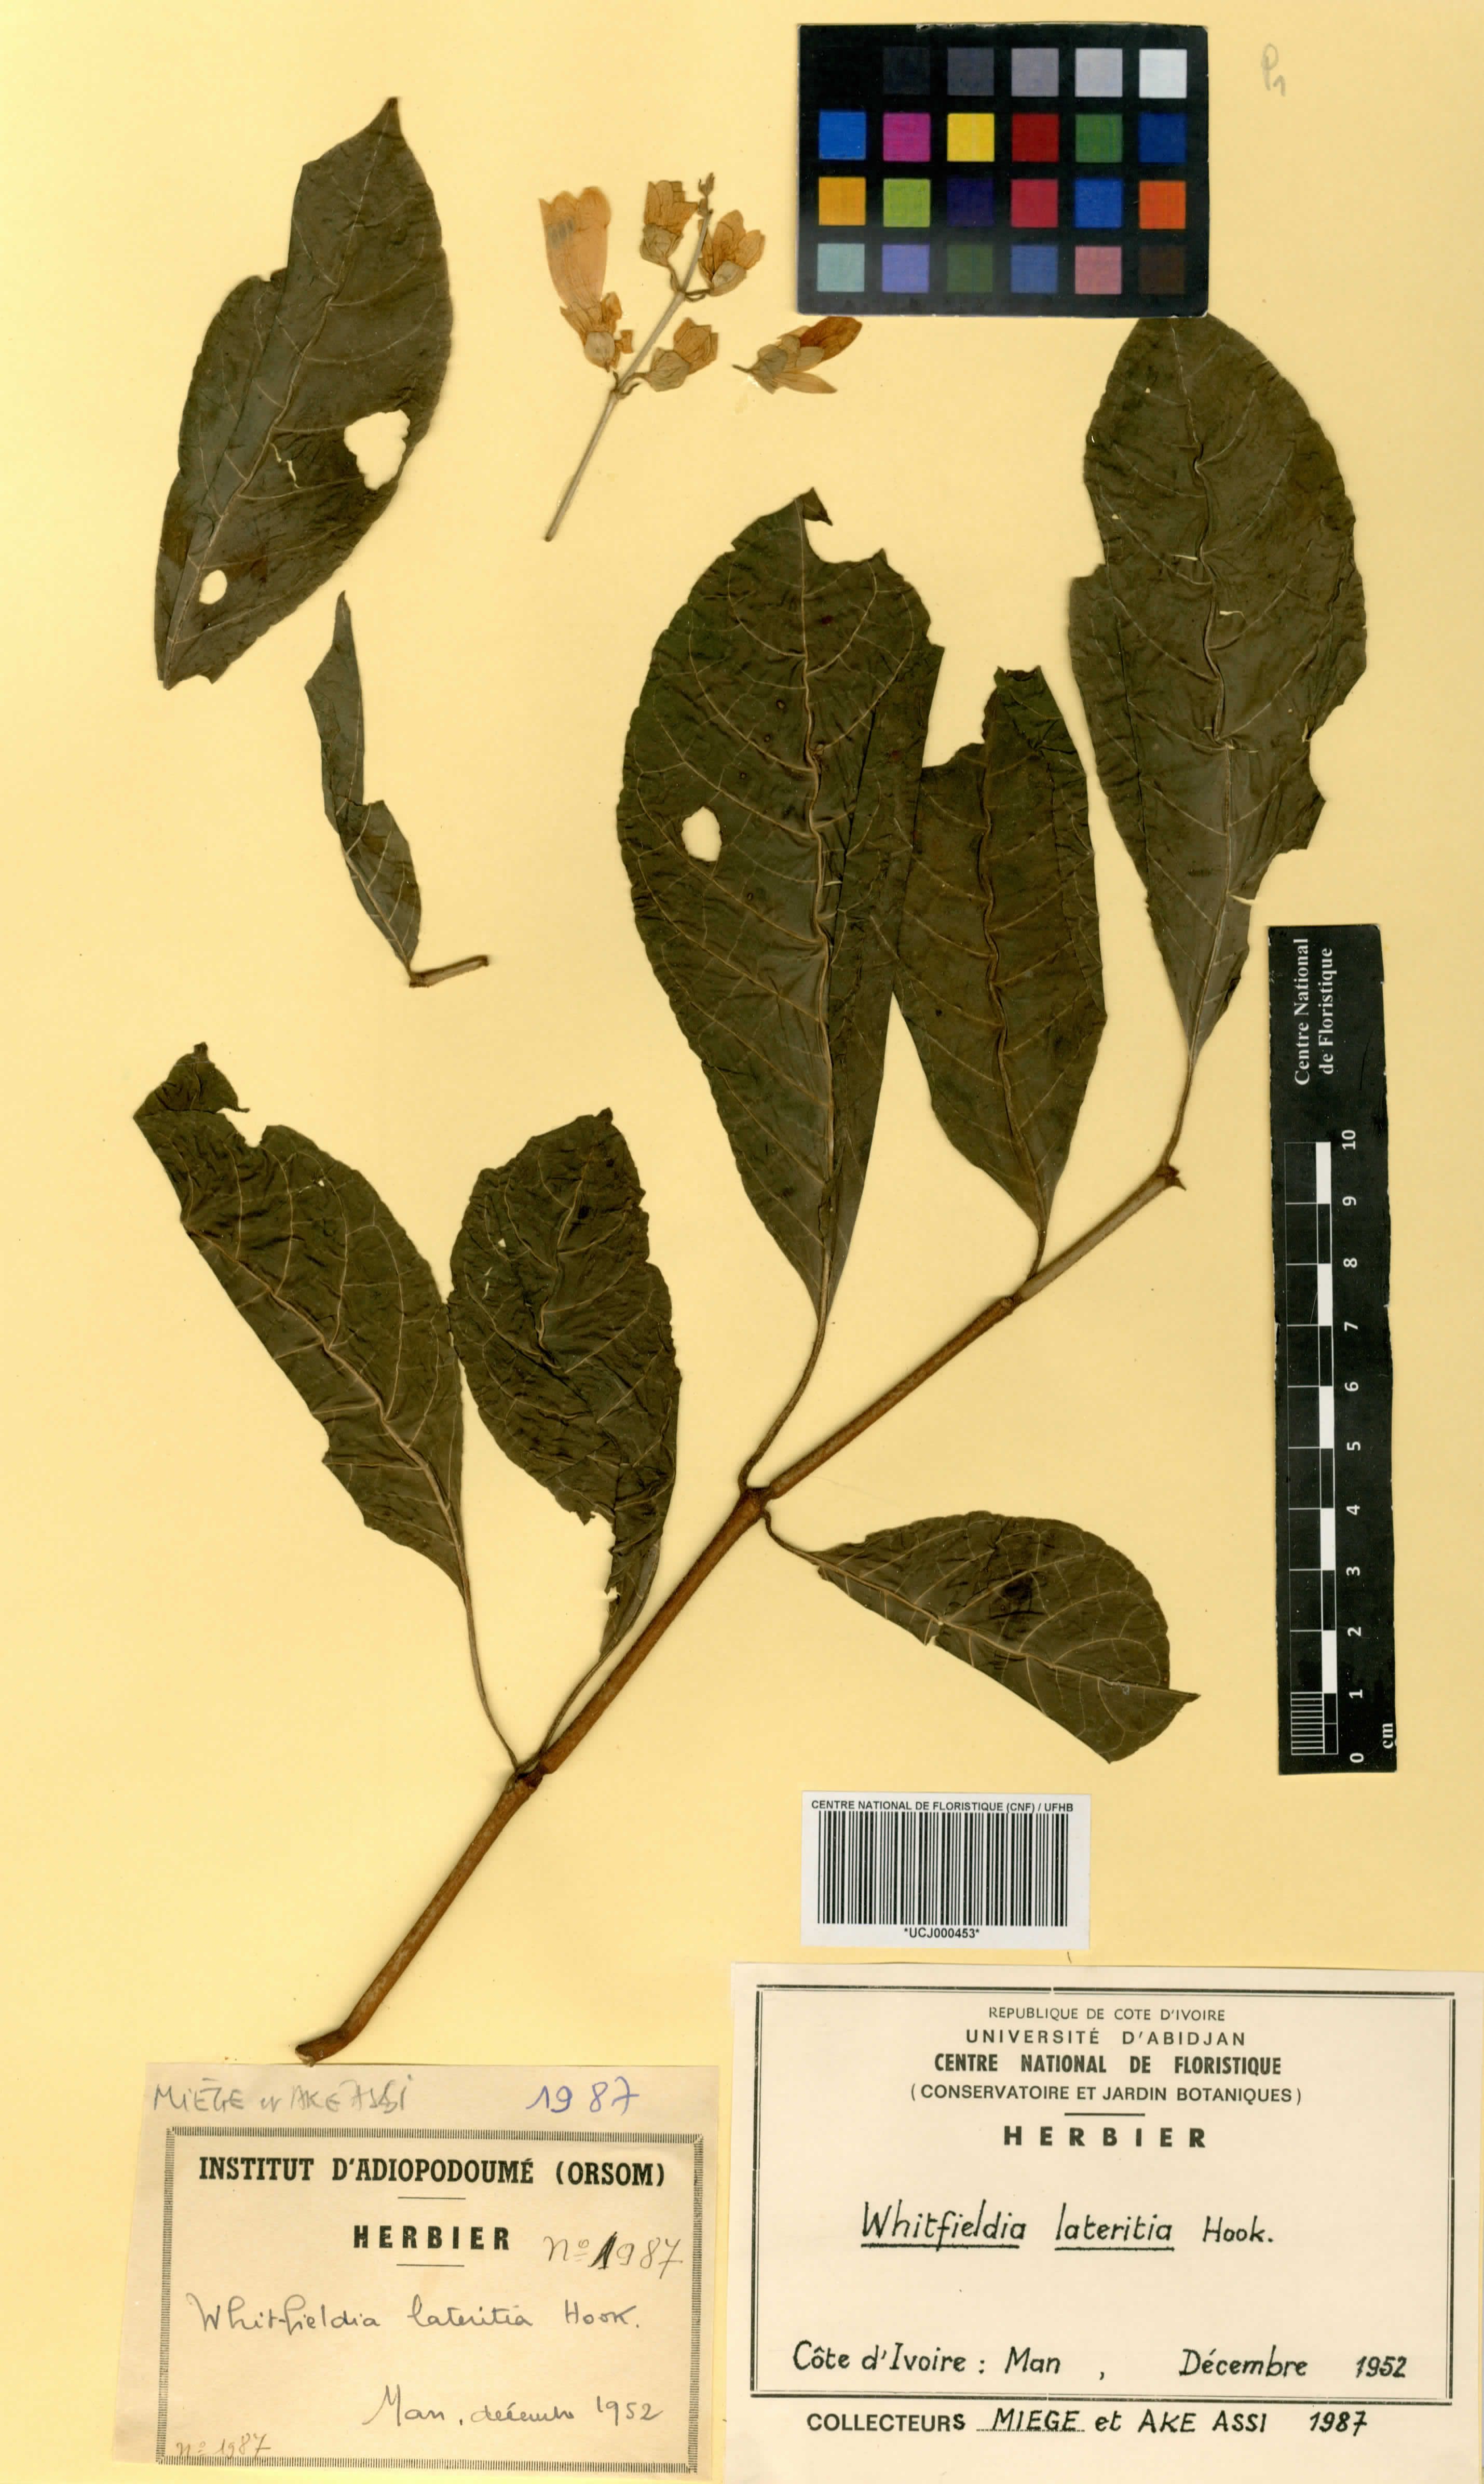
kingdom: Plantae
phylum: Tracheophyta
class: Magnoliopsida
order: Lamiales
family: Acanthaceae
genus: Whitfieldia
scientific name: Whitfieldia lateritia
